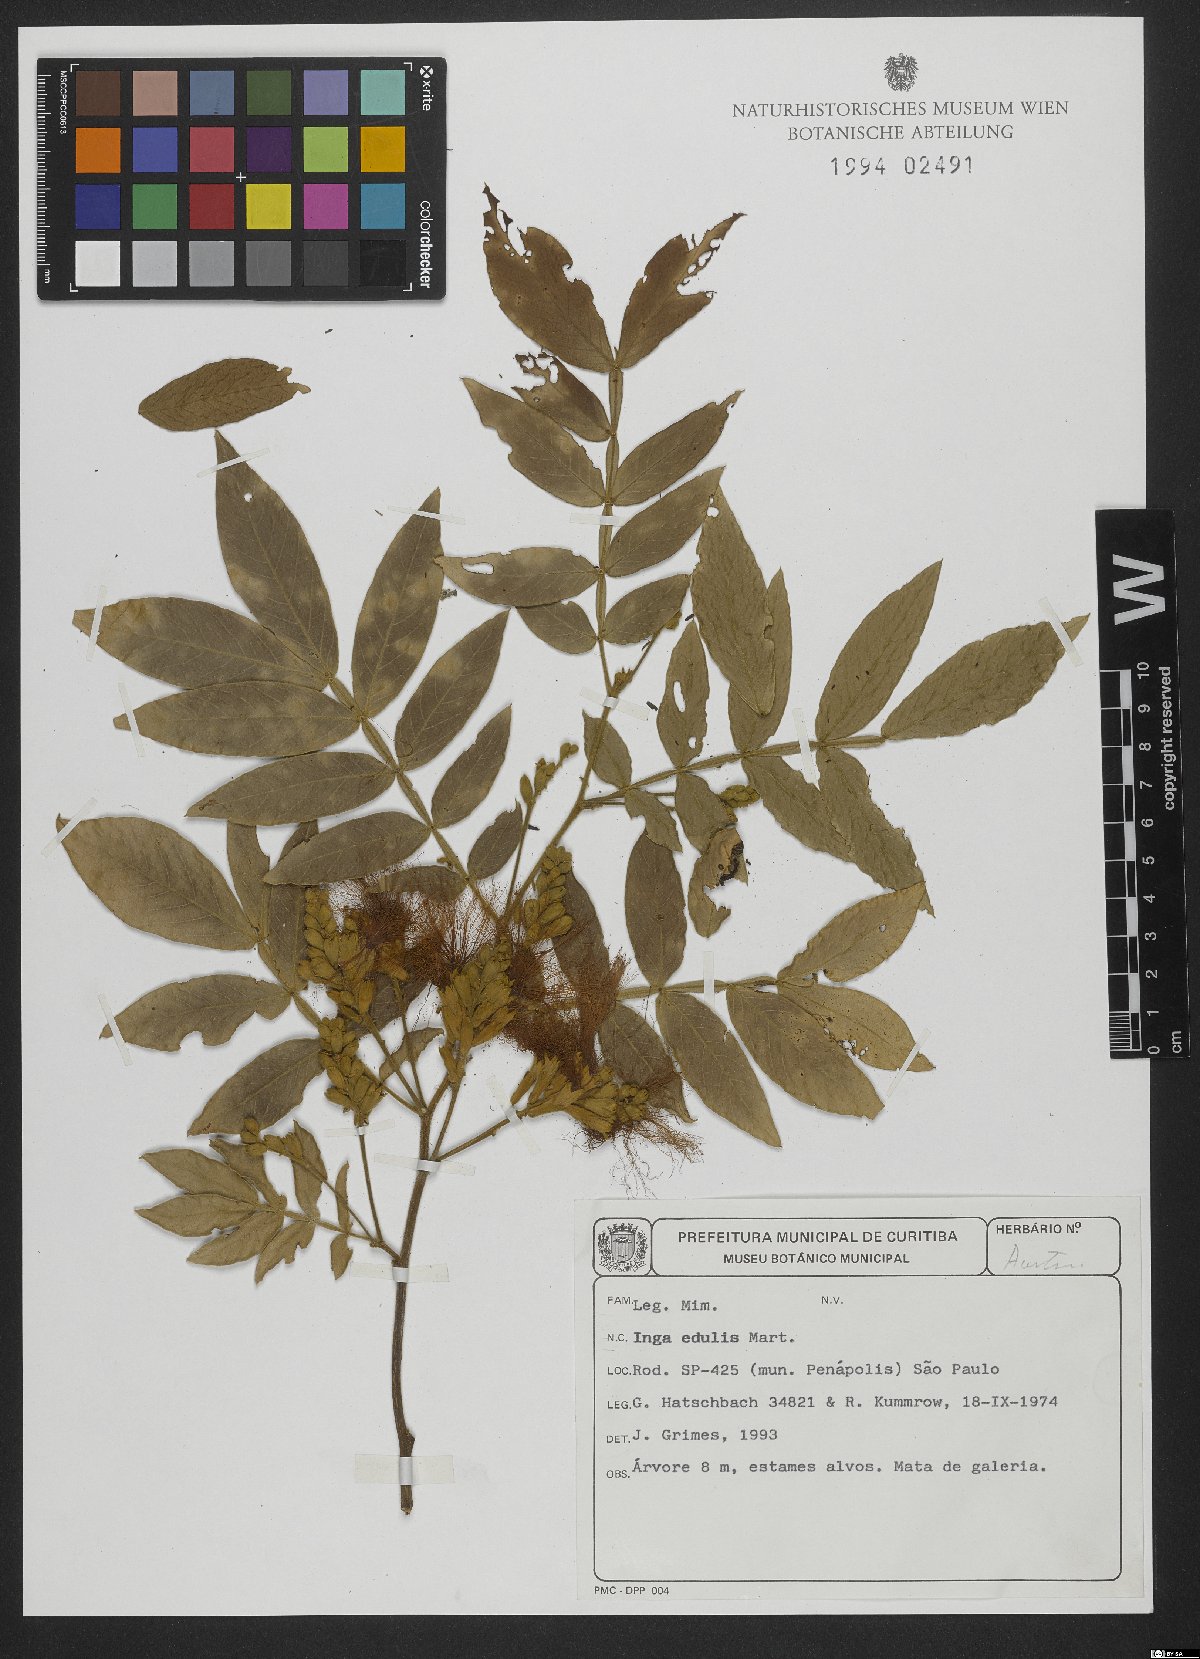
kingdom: Plantae
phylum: Tracheophyta
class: Magnoliopsida
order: Fabales
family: Fabaceae
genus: Inga
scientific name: Inga edulis
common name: Ice cream bean
